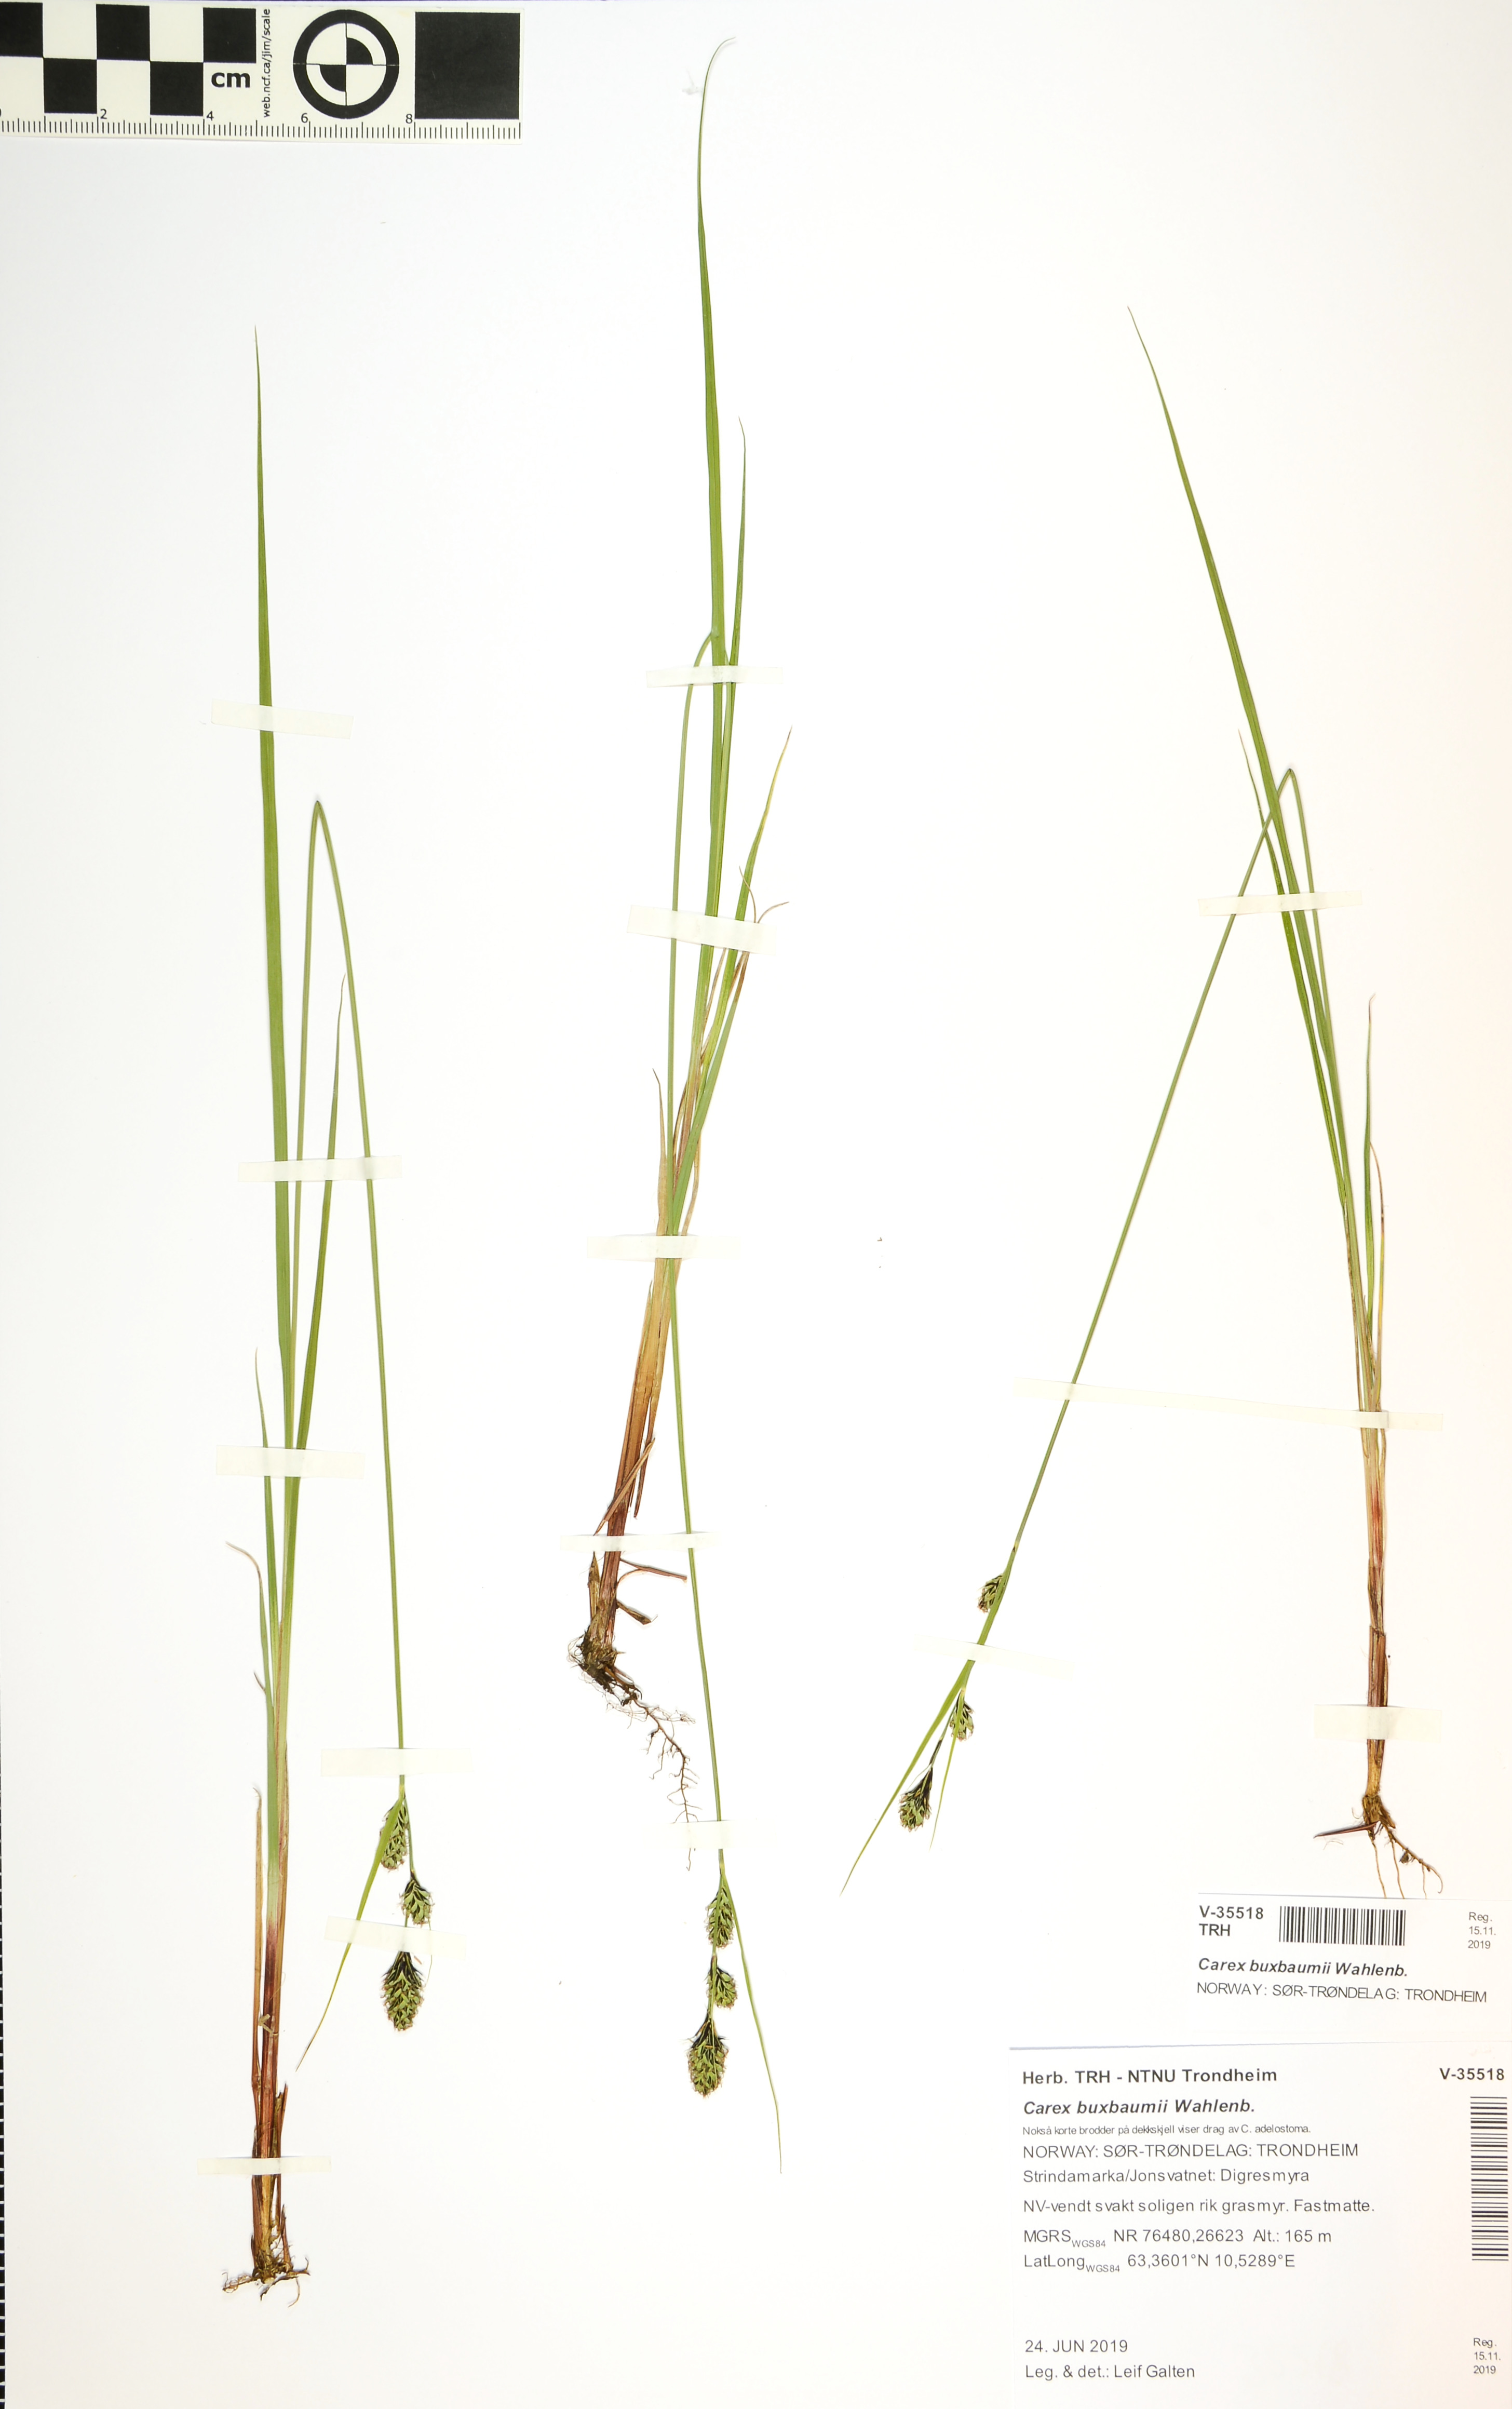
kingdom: Plantae
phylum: Tracheophyta
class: Liliopsida
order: Poales
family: Cyperaceae
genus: Carex
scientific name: Carex buxbaumii
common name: Club sedge
